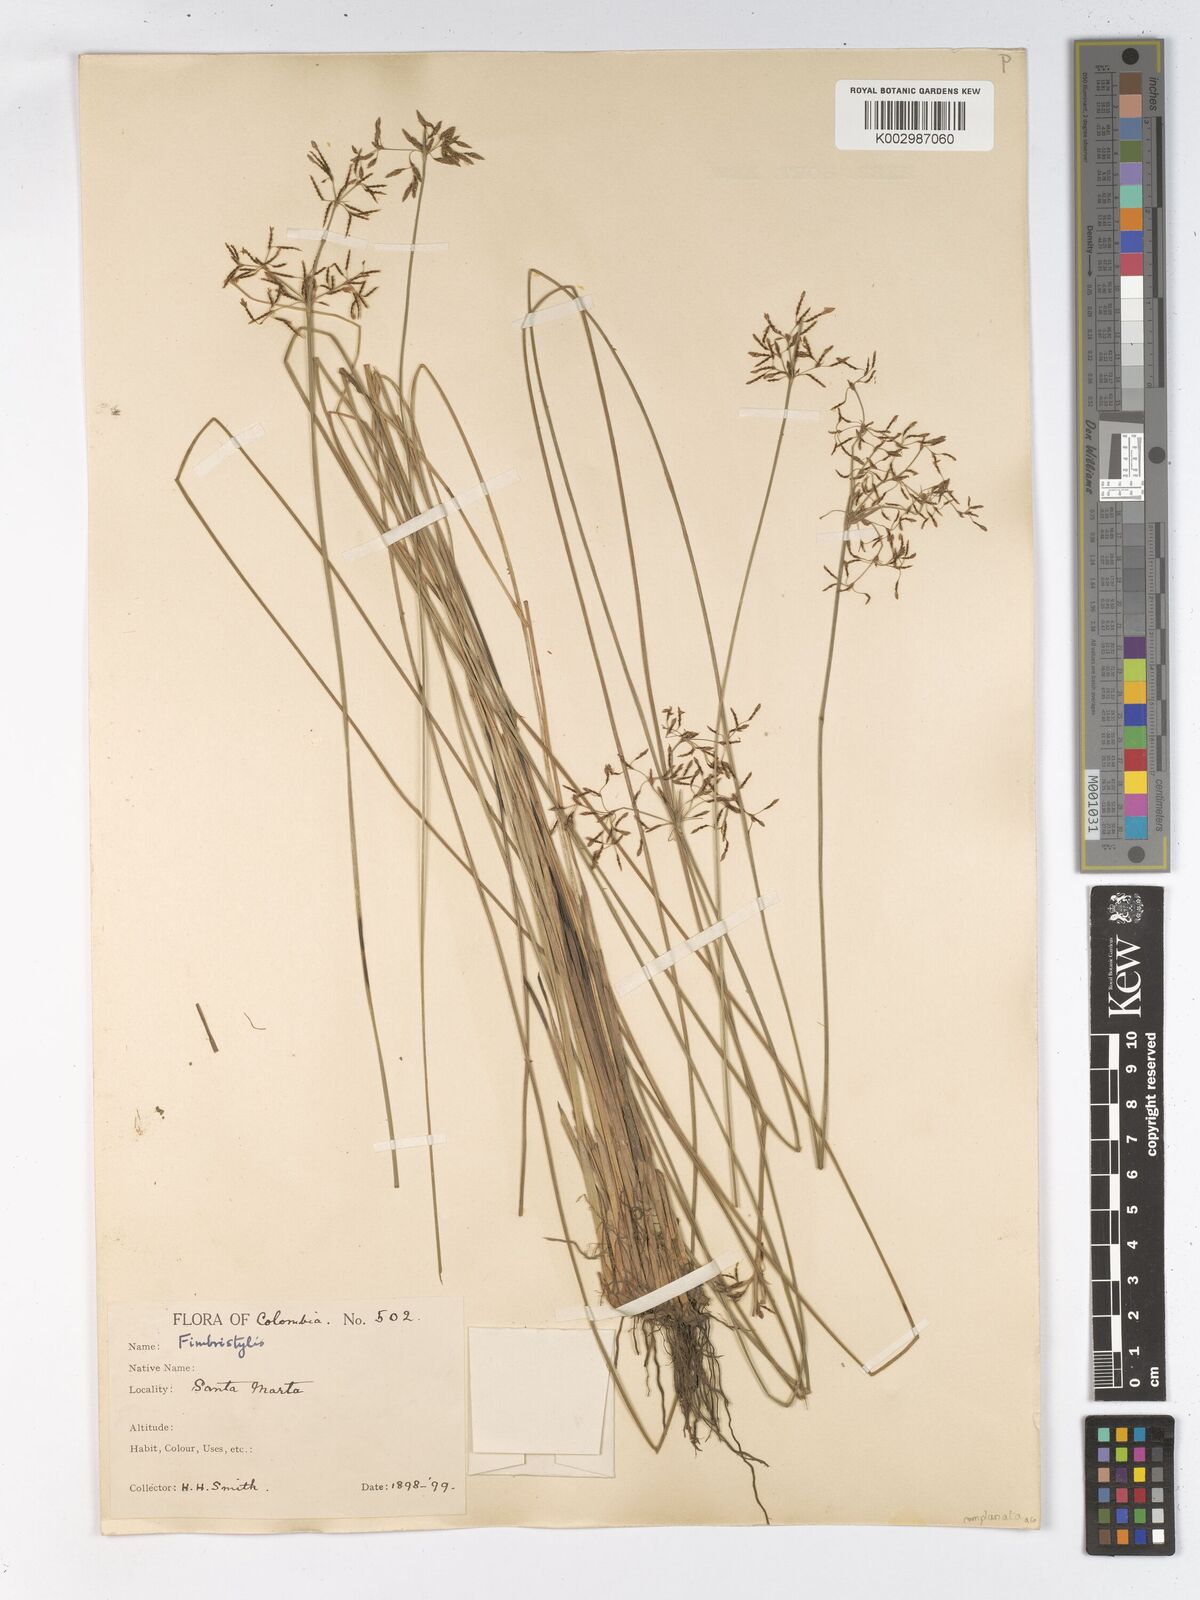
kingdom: Plantae
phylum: Tracheophyta
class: Liliopsida
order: Poales
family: Cyperaceae
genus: Fimbristylis
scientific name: Fimbristylis complanata
